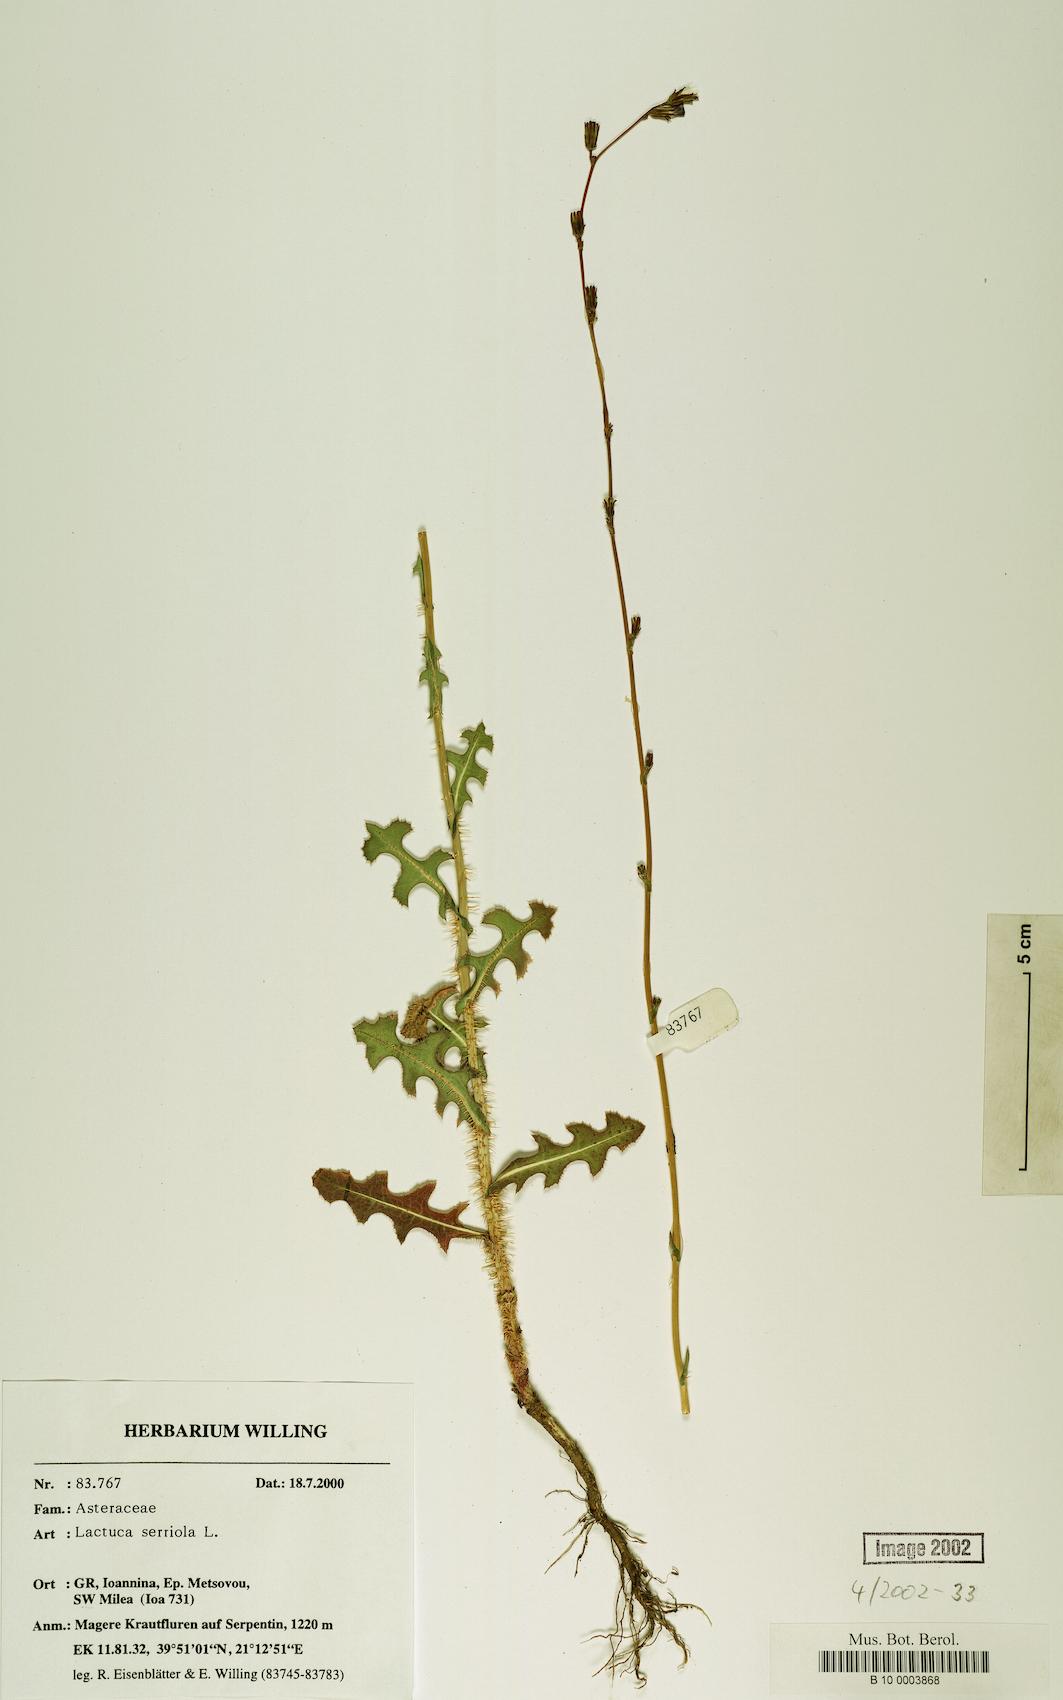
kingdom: Plantae
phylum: Tracheophyta
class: Magnoliopsida
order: Asterales
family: Asteraceae
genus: Lactuca
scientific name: Lactuca serriola
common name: Prickly lettuce
